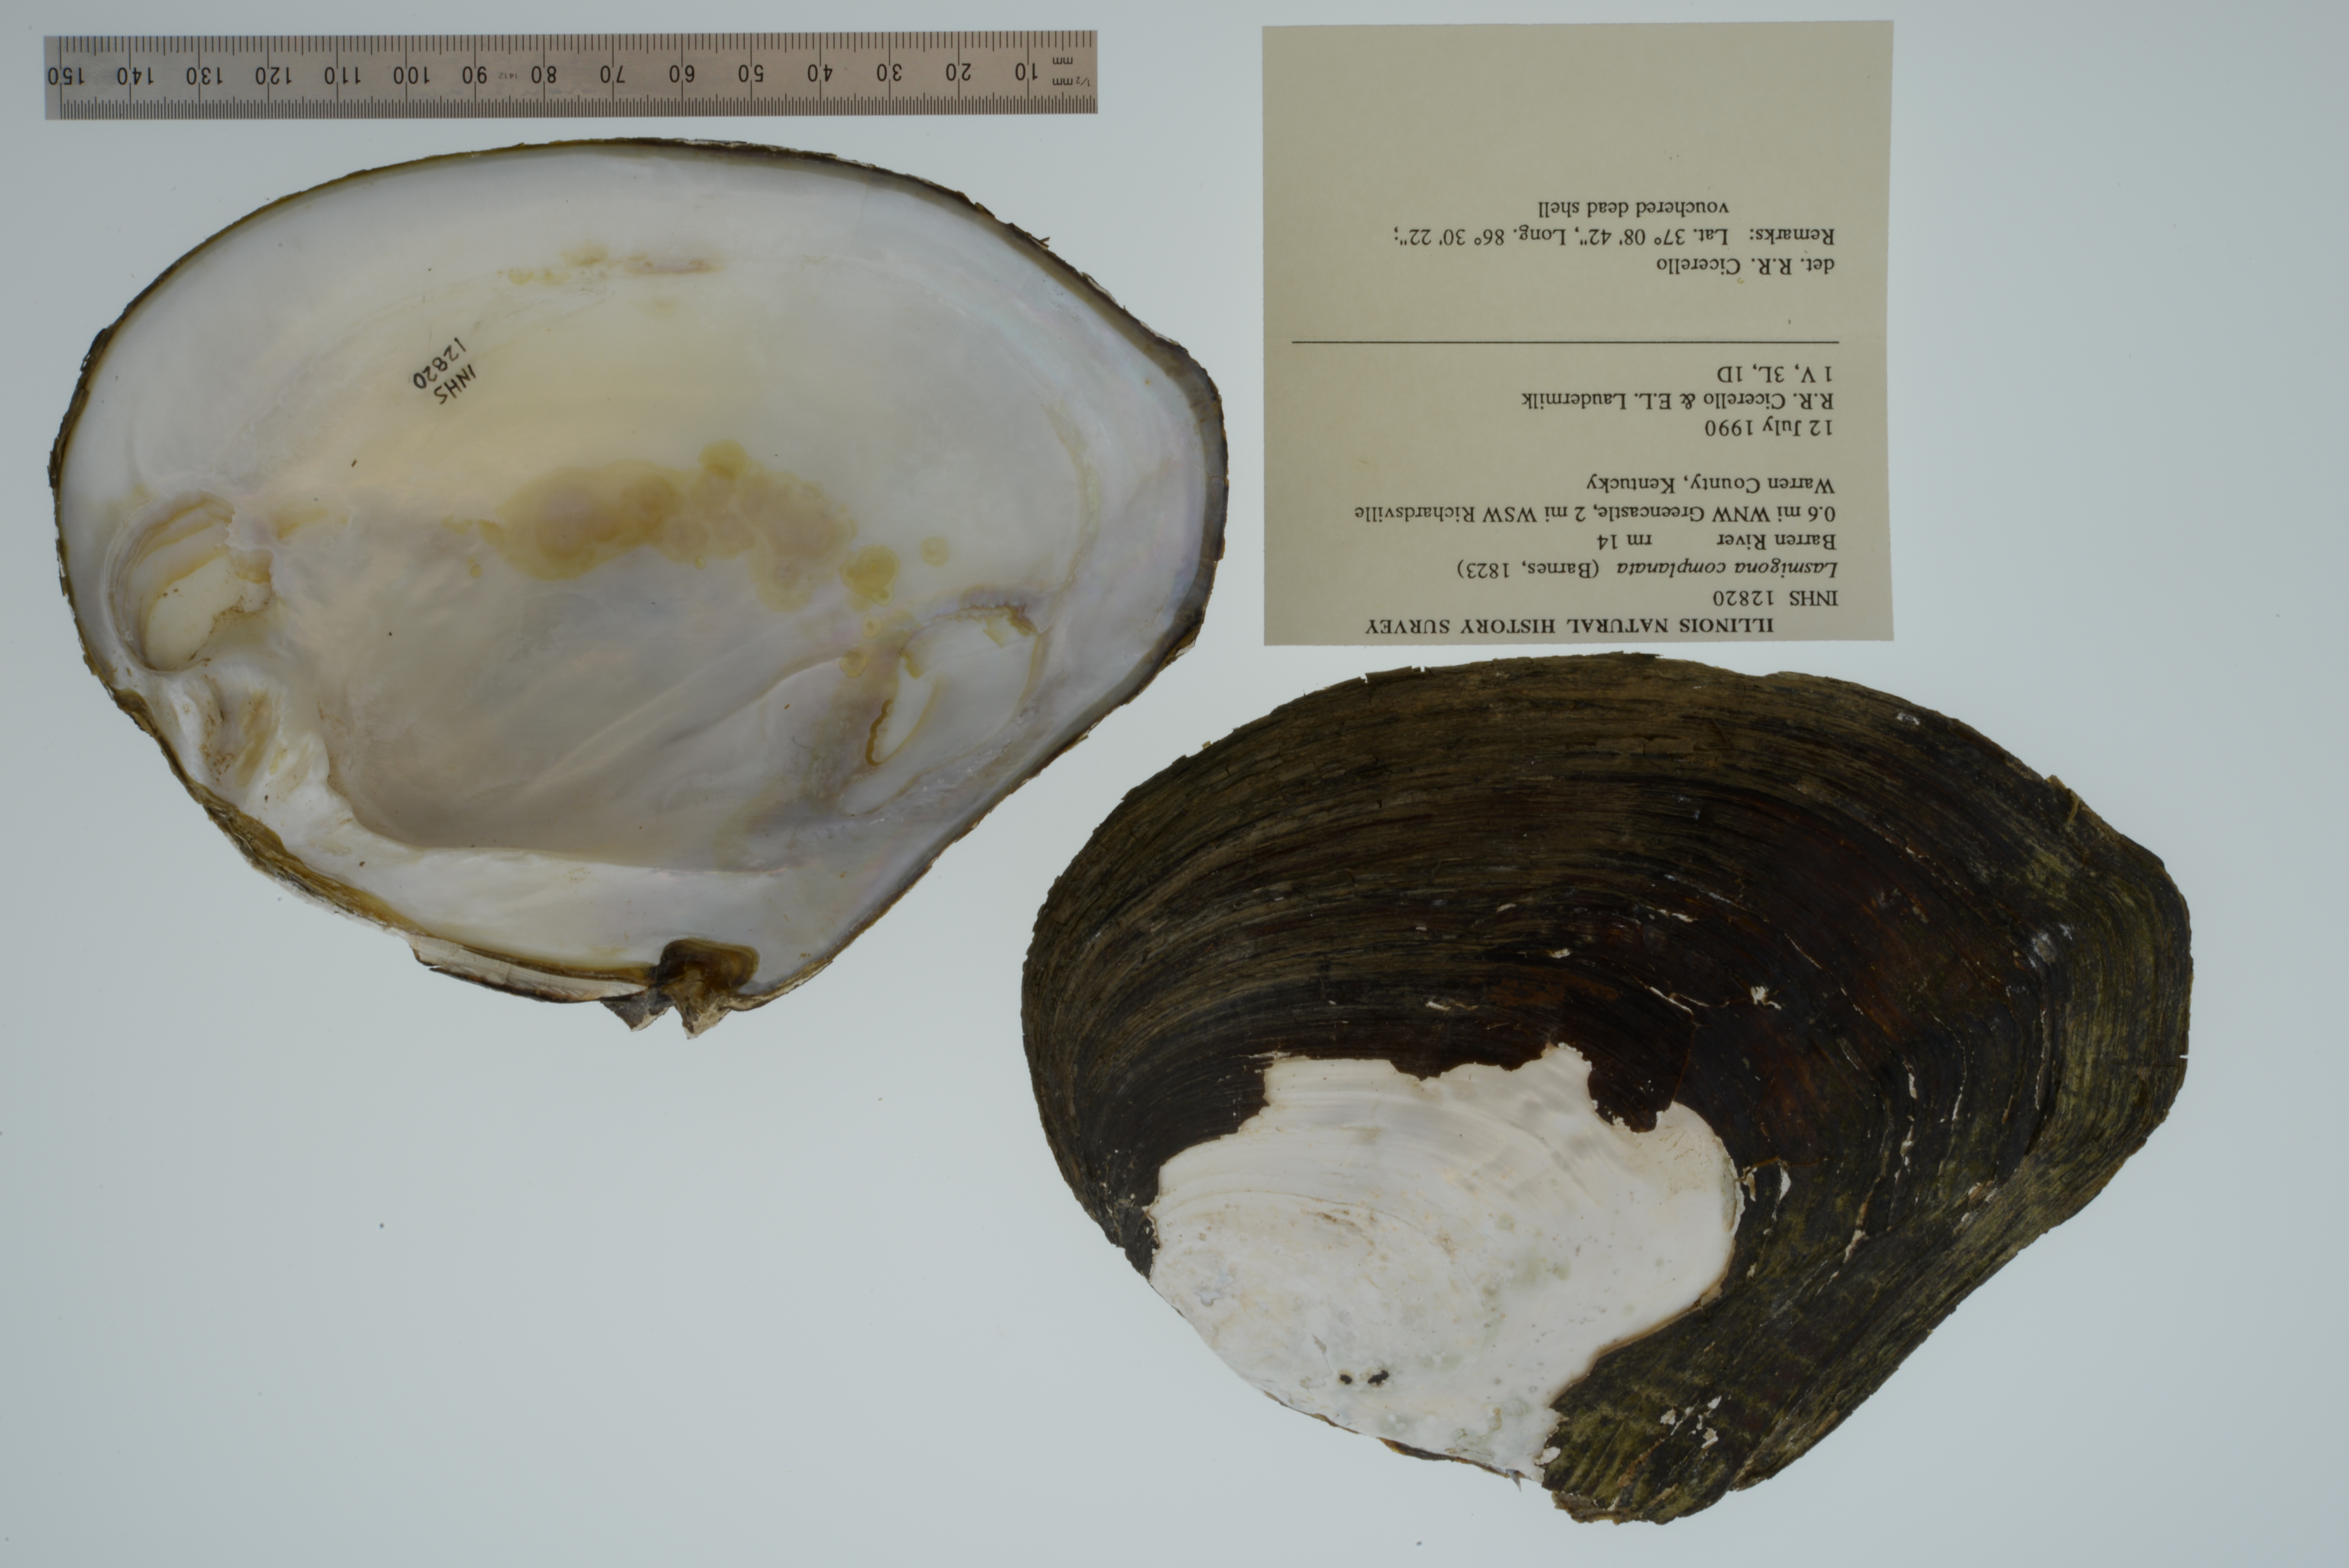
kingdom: Animalia
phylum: Mollusca
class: Bivalvia
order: Unionida
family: Unionidae
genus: Lasmigona
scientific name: Lasmigona complanata
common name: White heelsplitter
